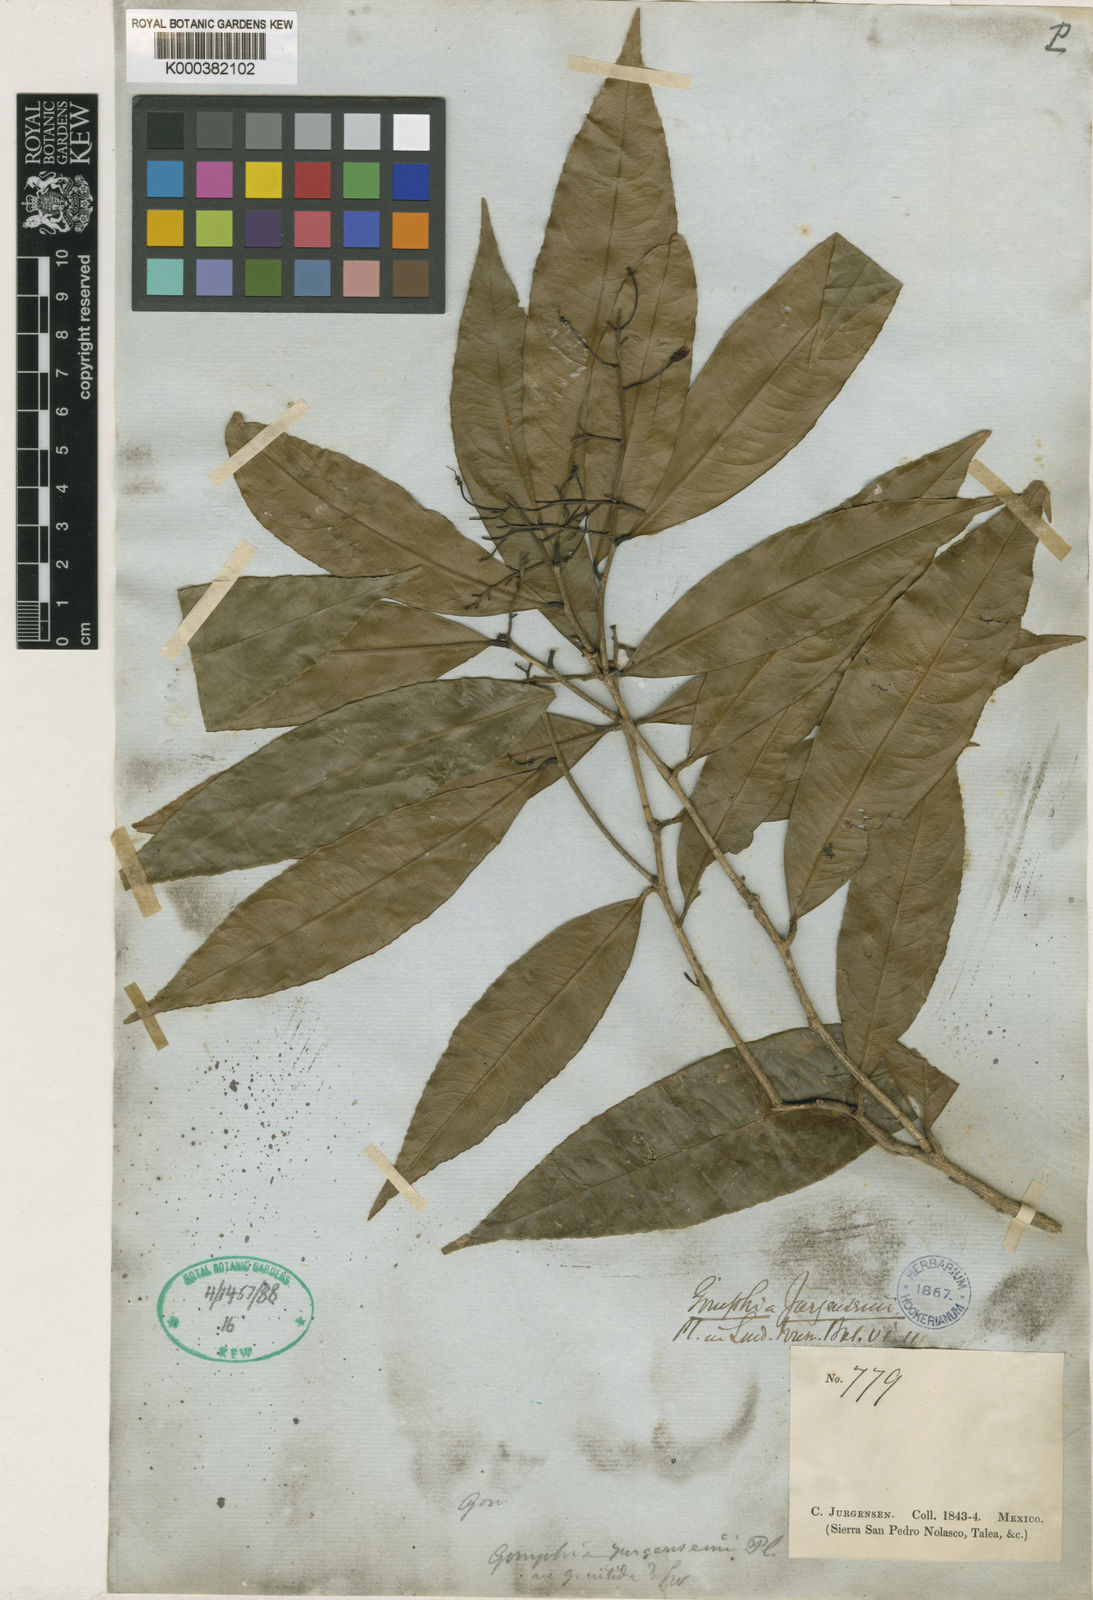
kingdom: Plantae
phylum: Tracheophyta
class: Magnoliopsida
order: Malpighiales
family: Ochnaceae
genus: Ouratea
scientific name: Ouratea juergensii
